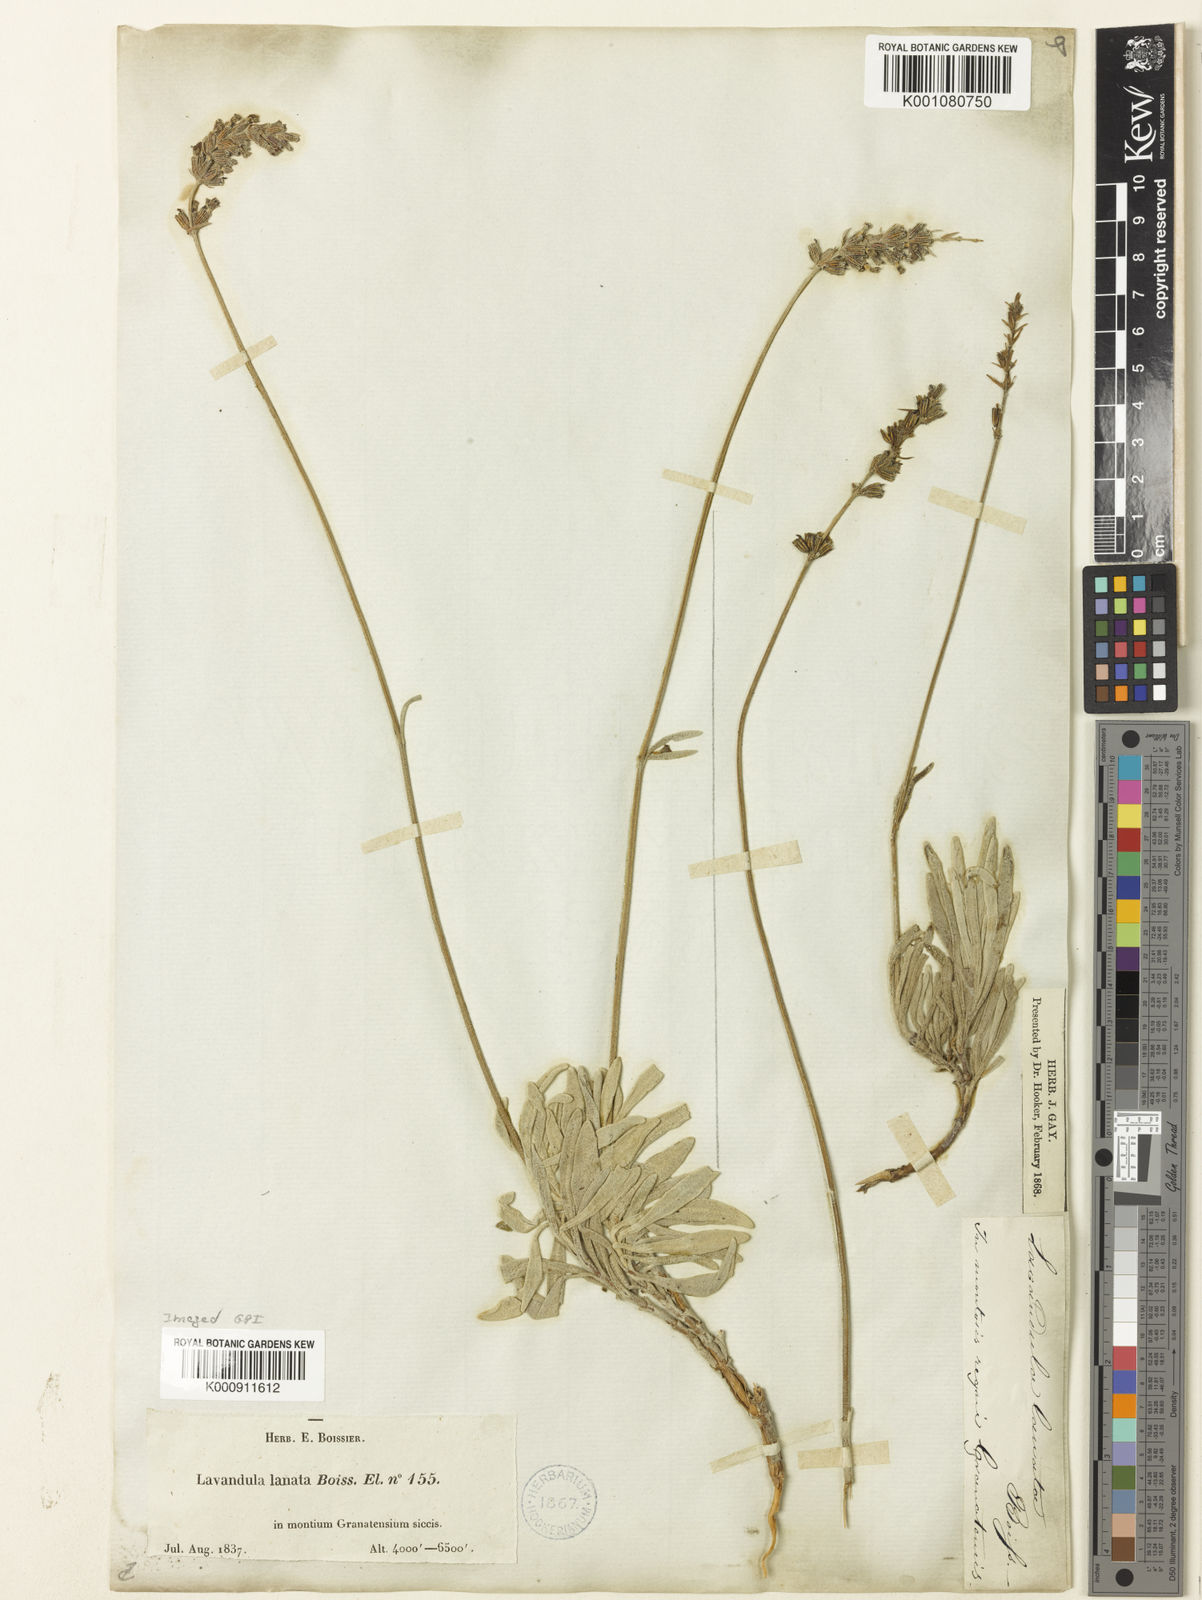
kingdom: Plantae
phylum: Tracheophyta
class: Magnoliopsida
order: Lamiales
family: Lamiaceae
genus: Lavandula
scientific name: Lavandula lanata
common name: Woolly lavender
